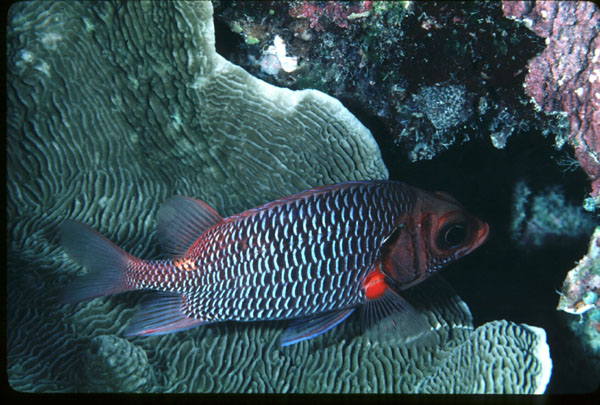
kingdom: Animalia
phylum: Chordata
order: Beryciformes
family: Holocentridae
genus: Sargocentron
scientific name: Sargocentron violaceum
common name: Red-faced squirrelfish
